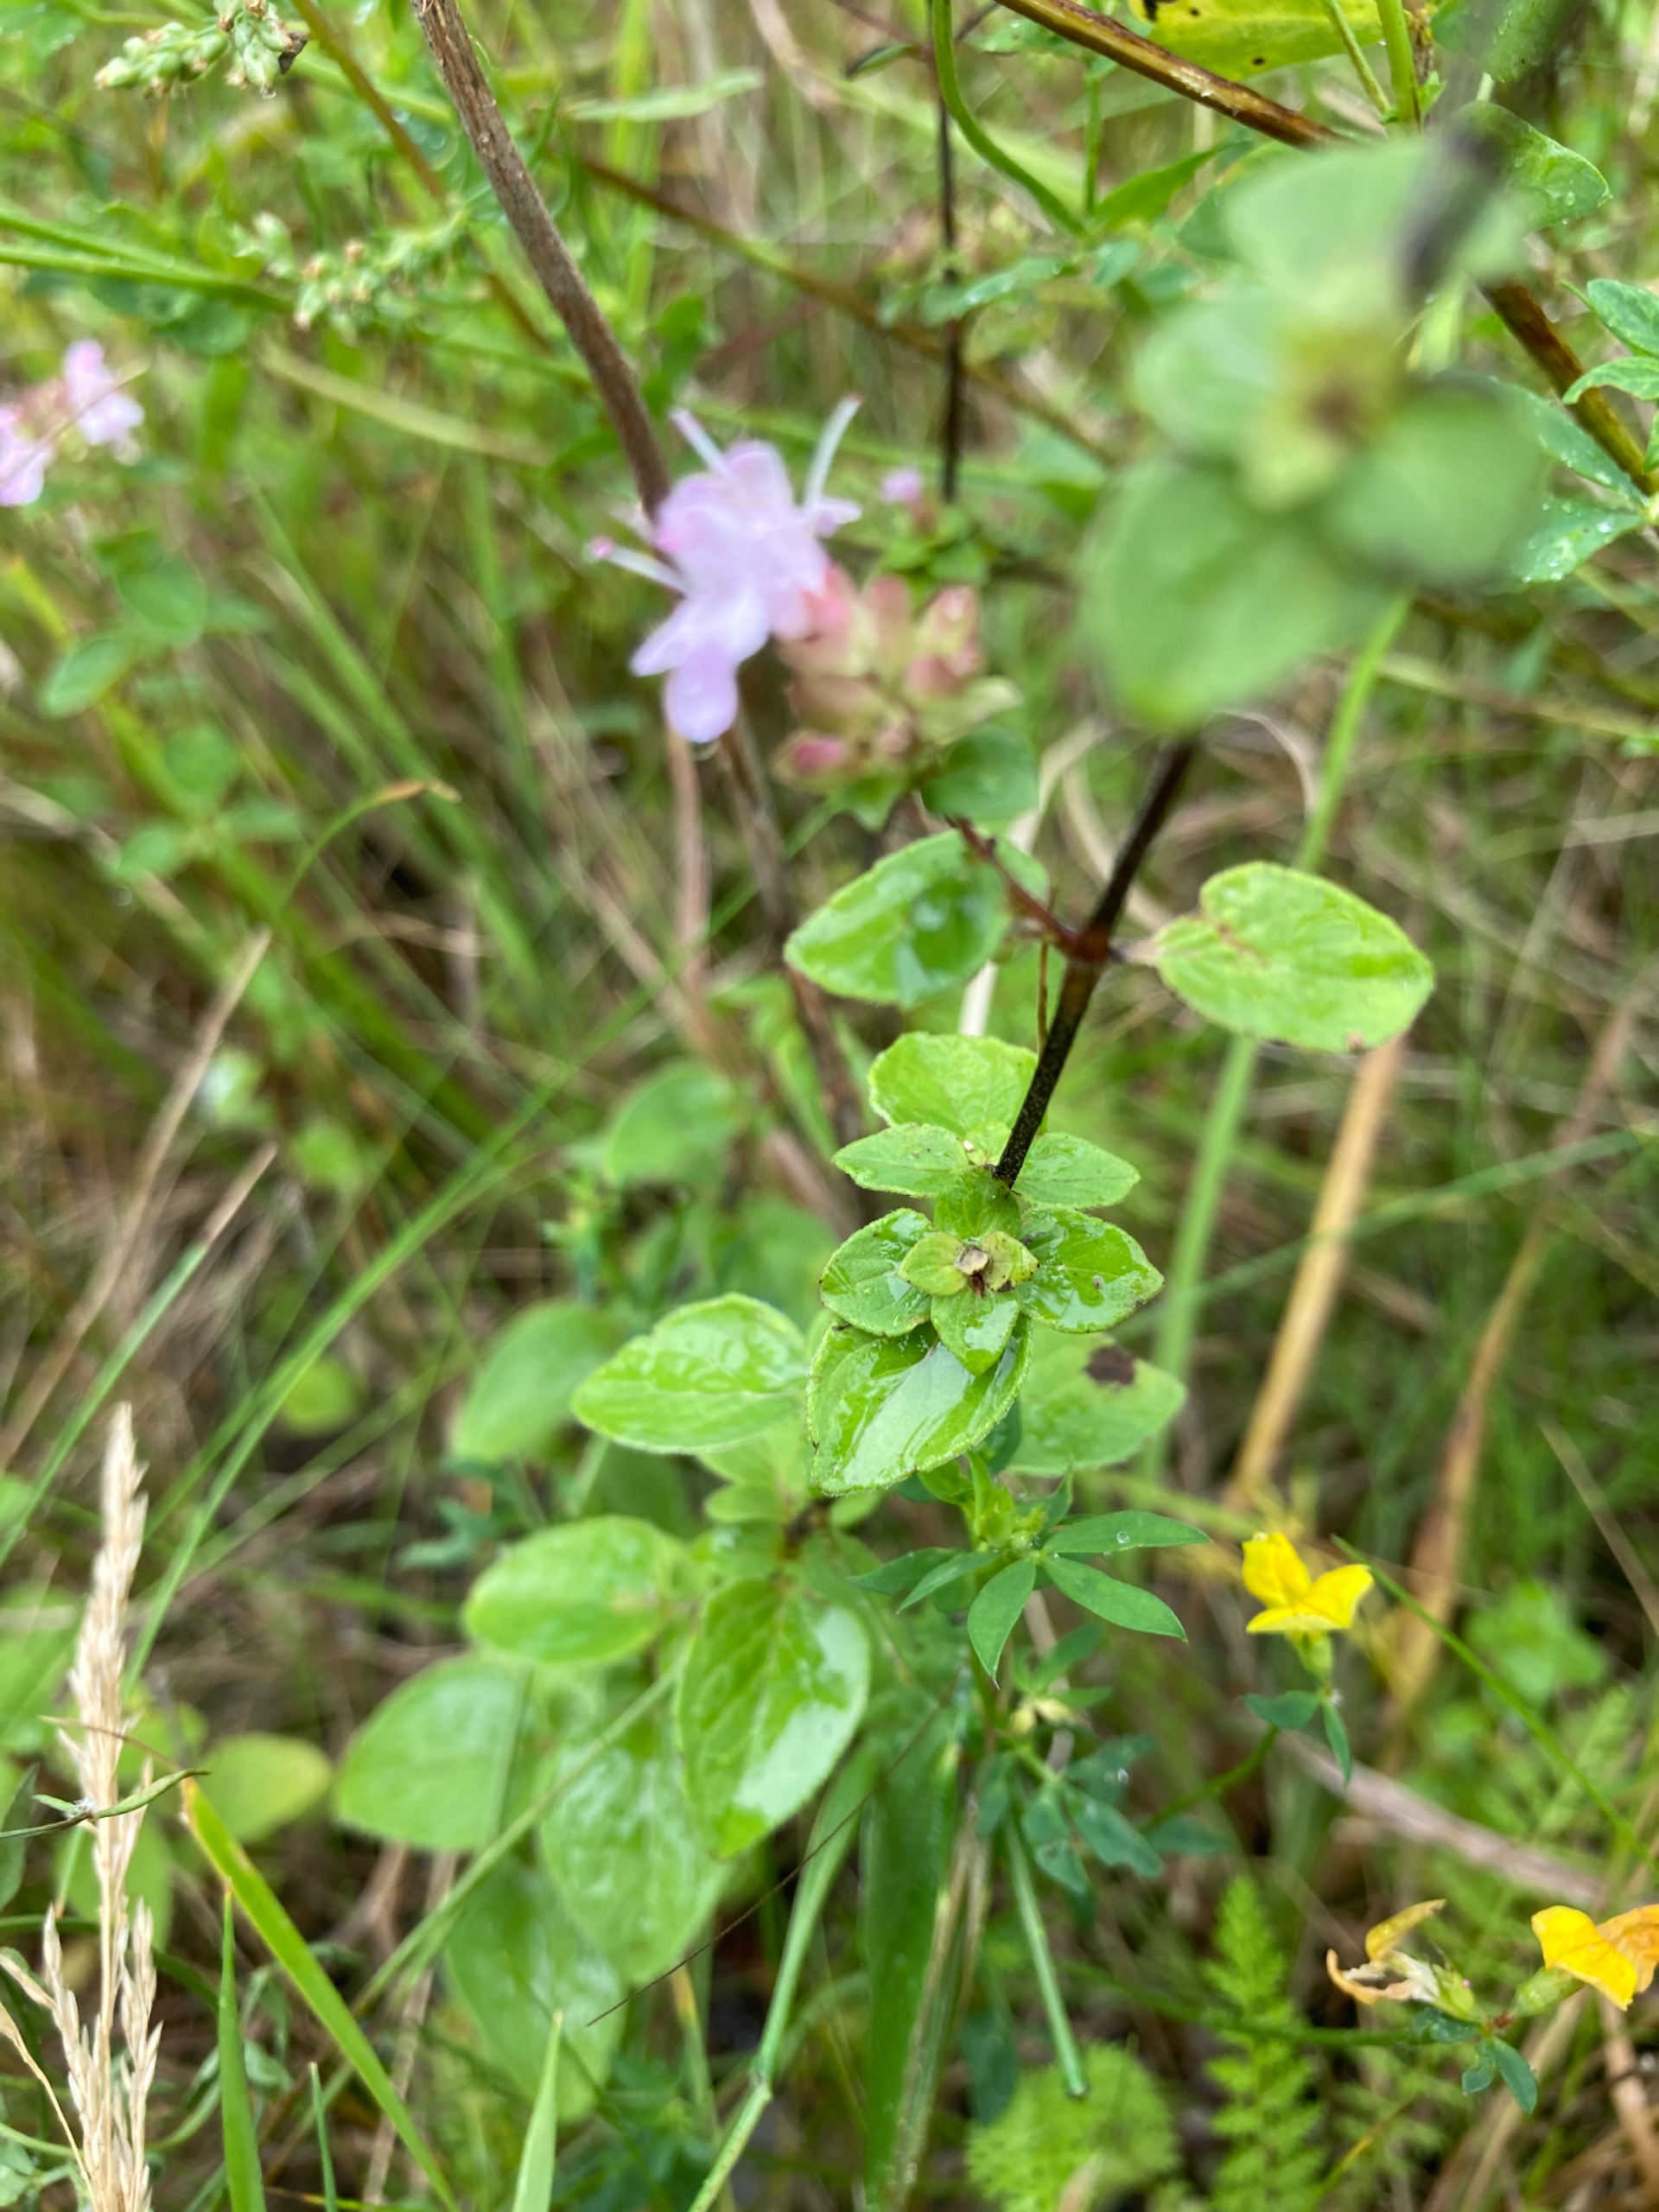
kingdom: Plantae
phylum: Tracheophyta
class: Magnoliopsida
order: Lamiales
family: Lamiaceae
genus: Origanum
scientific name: Origanum vulgare
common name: Merian
